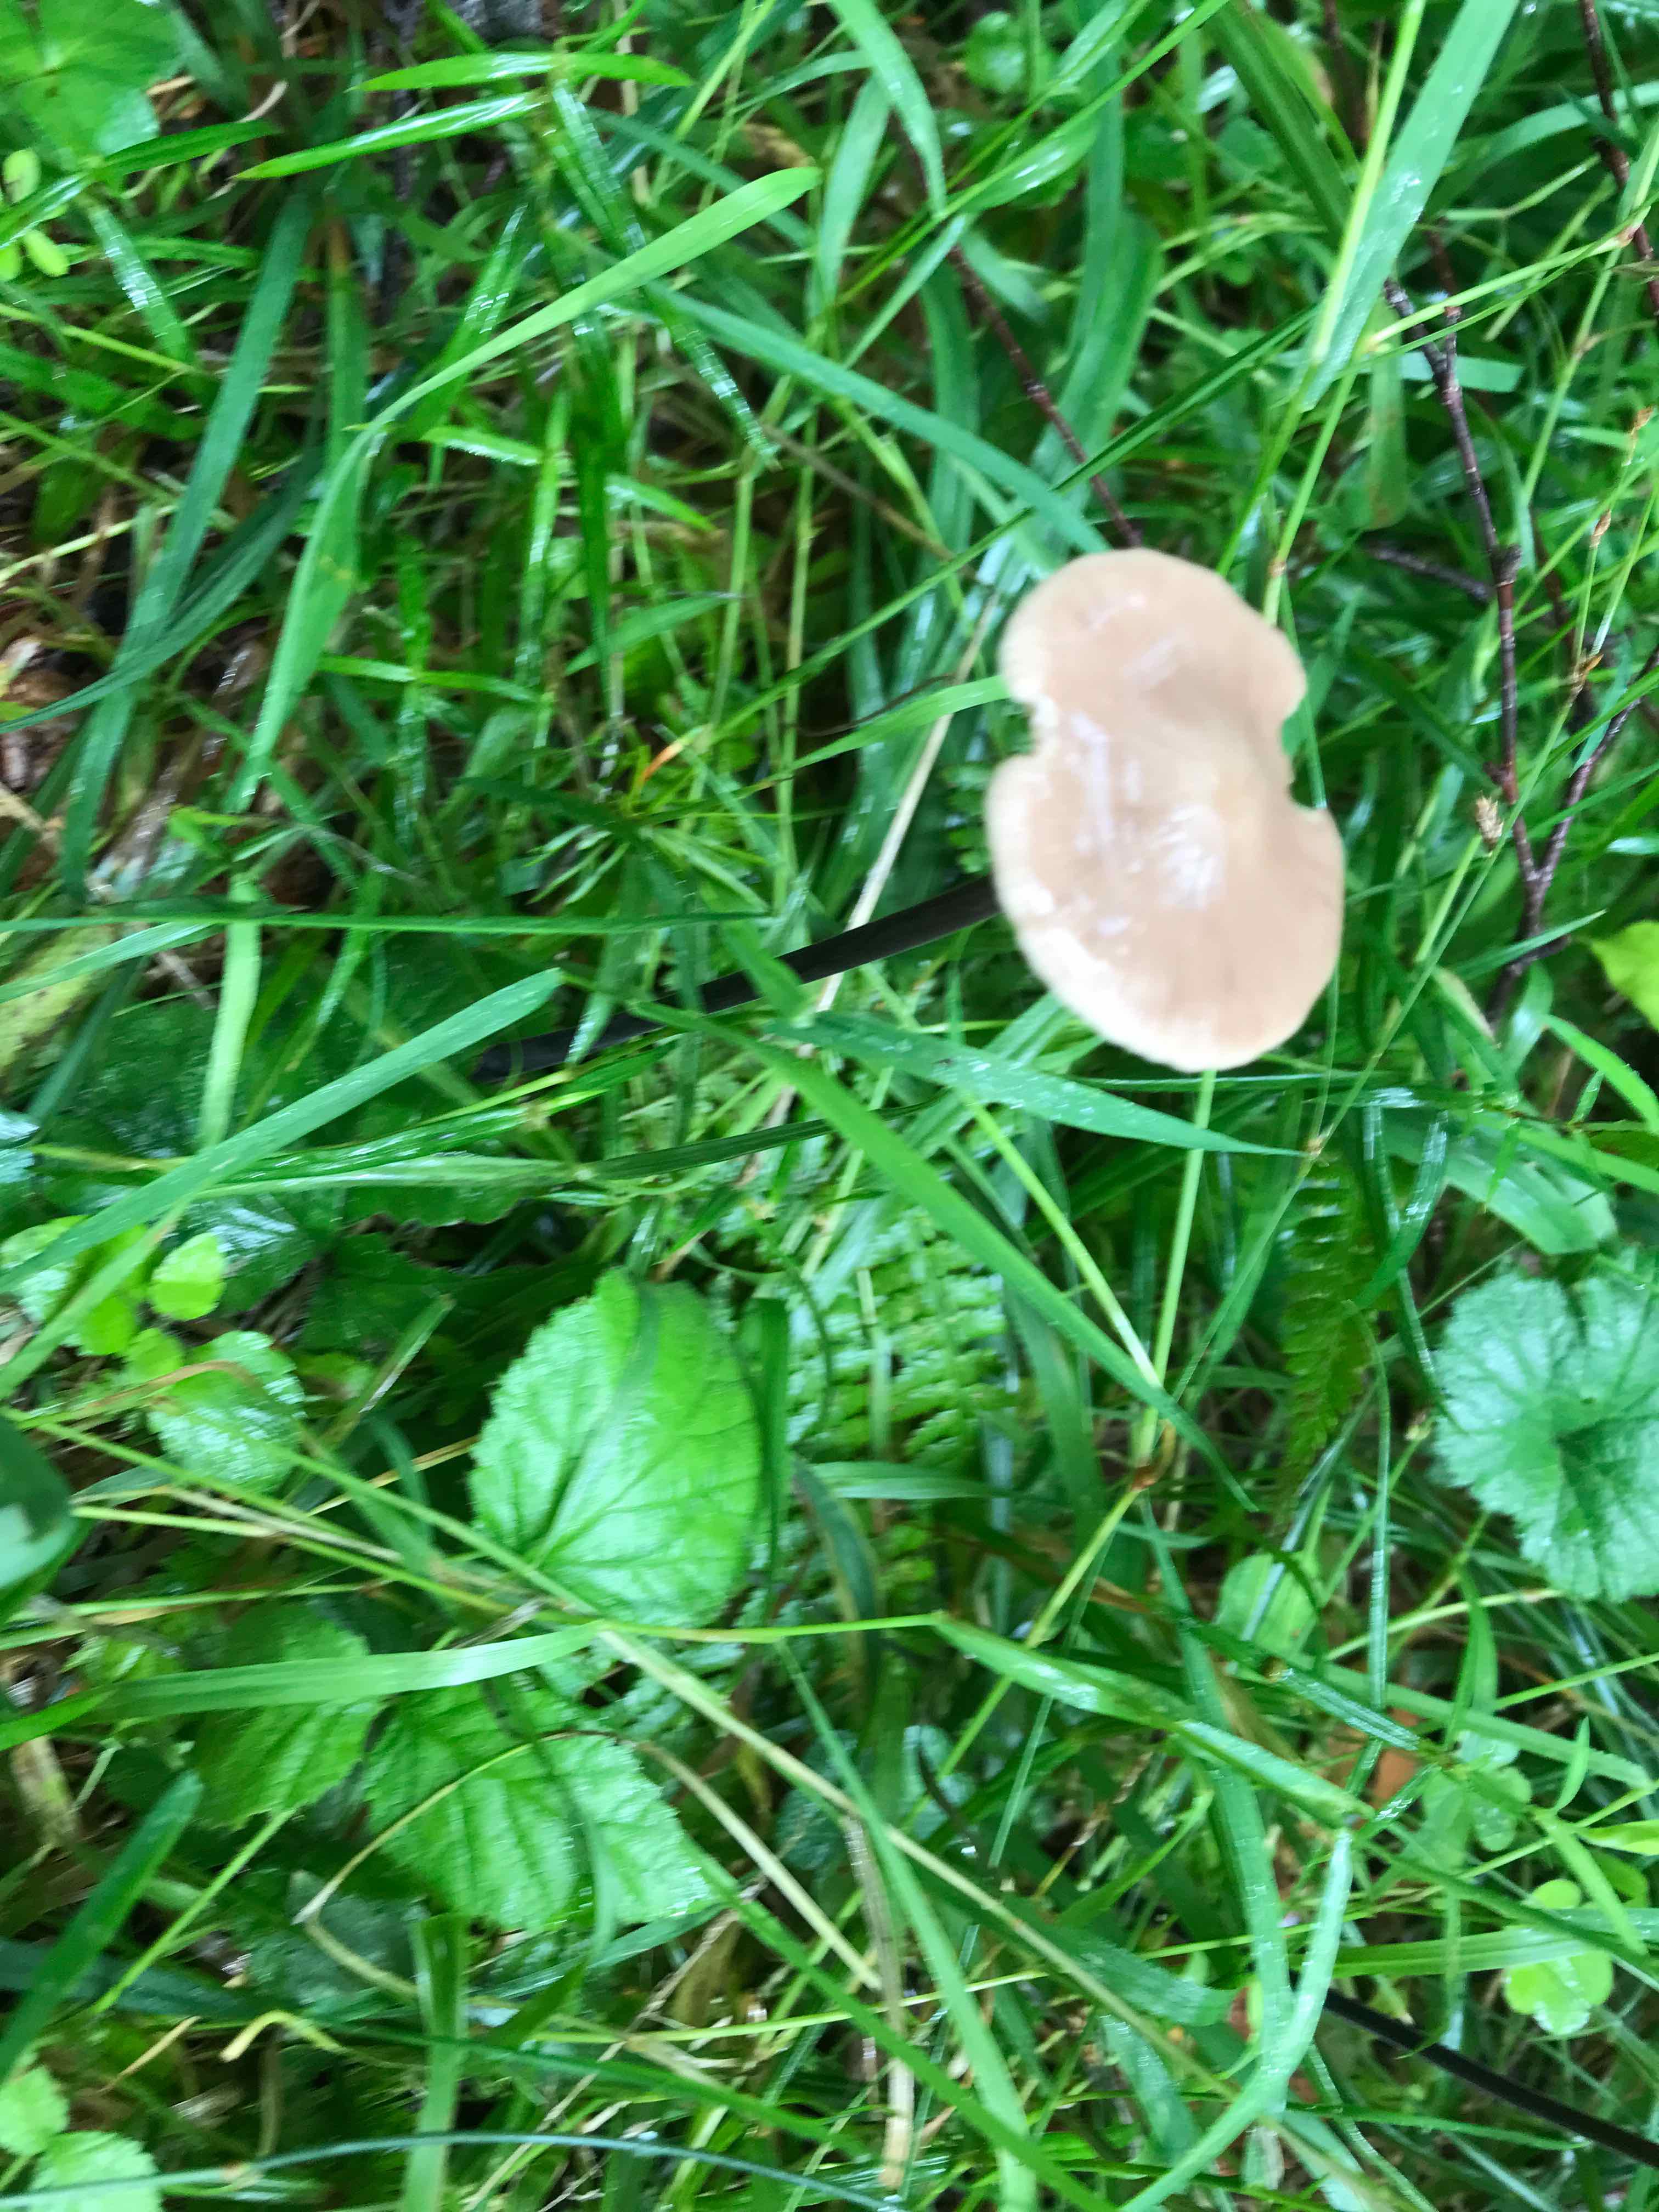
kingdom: Fungi
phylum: Basidiomycota
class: Agaricomycetes
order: Agaricales
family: Omphalotaceae
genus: Mycetinis
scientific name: Mycetinis alliaceus
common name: stor løghat
